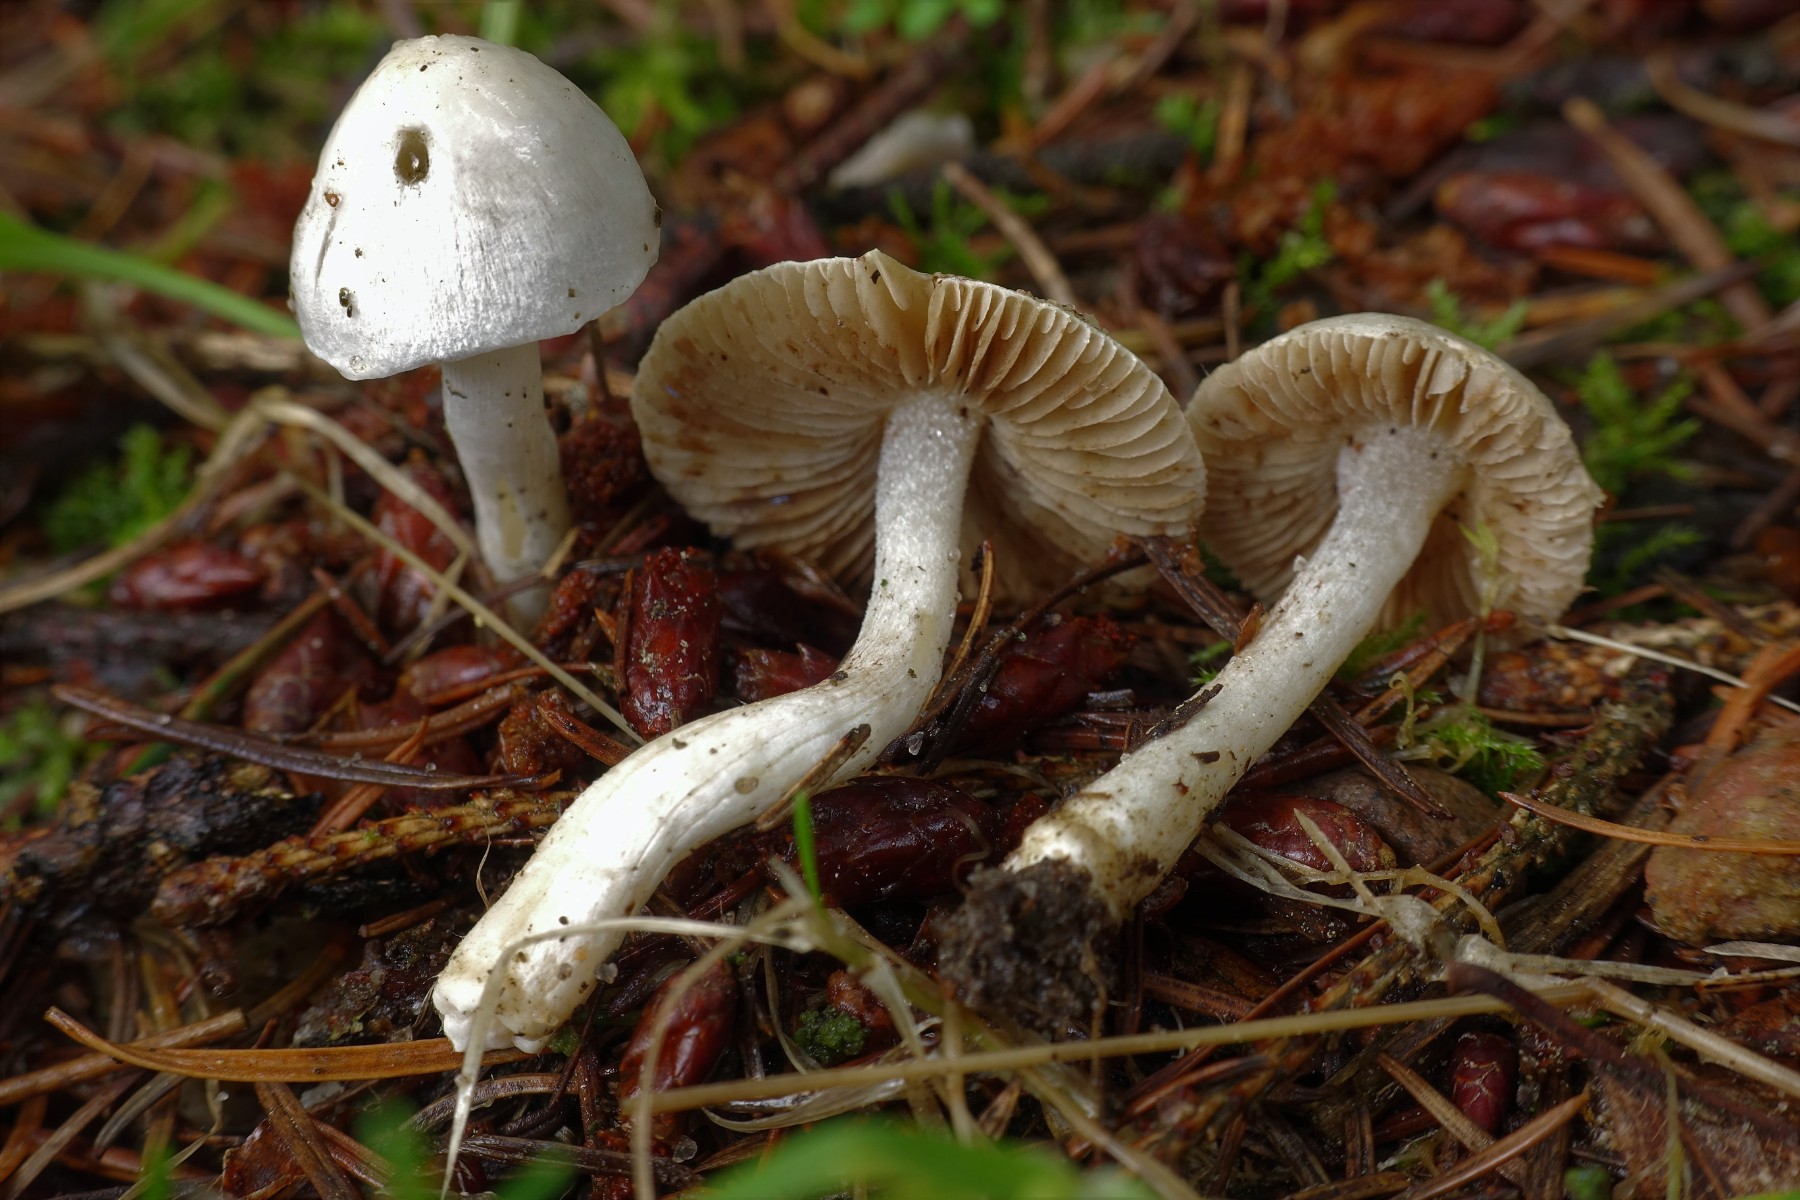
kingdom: Fungi
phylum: Basidiomycota
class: Agaricomycetes
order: Agaricales
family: Inocybaceae
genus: Inocybe
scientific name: Inocybe
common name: almindelig trævlhat
